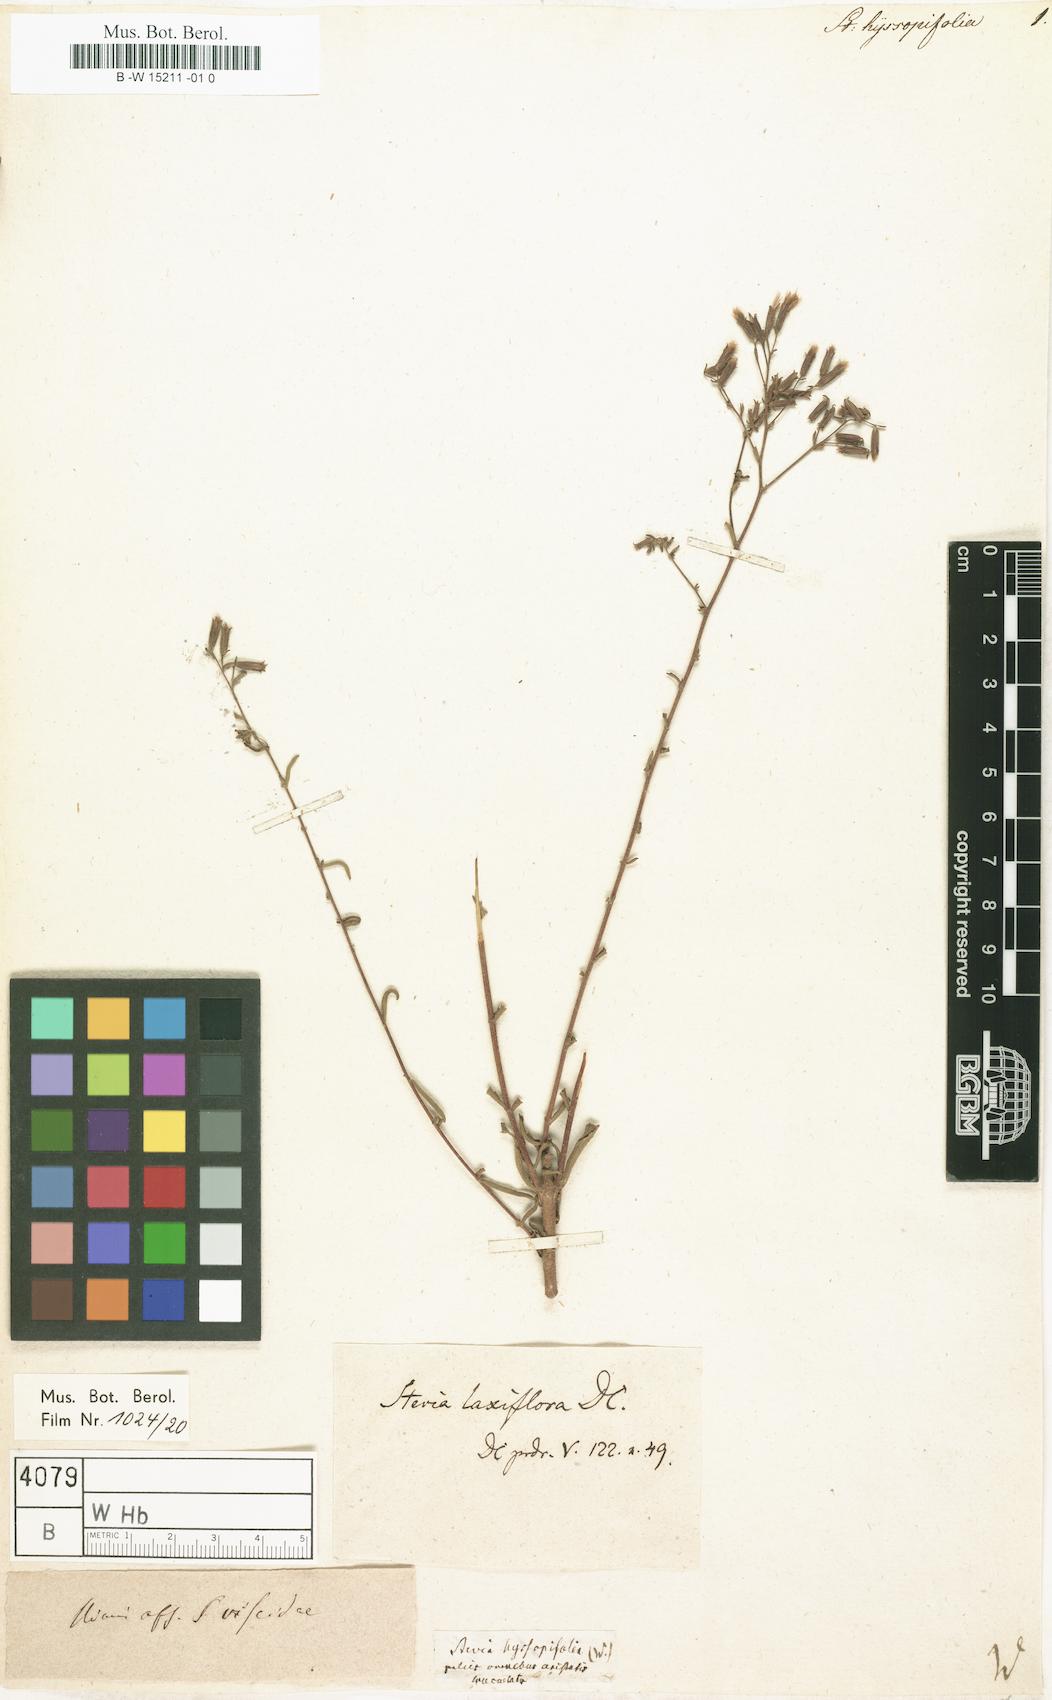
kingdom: Plantae
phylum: Tracheophyta
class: Magnoliopsida
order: Asterales
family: Asteraceae
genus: Stevia
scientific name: Stevia
